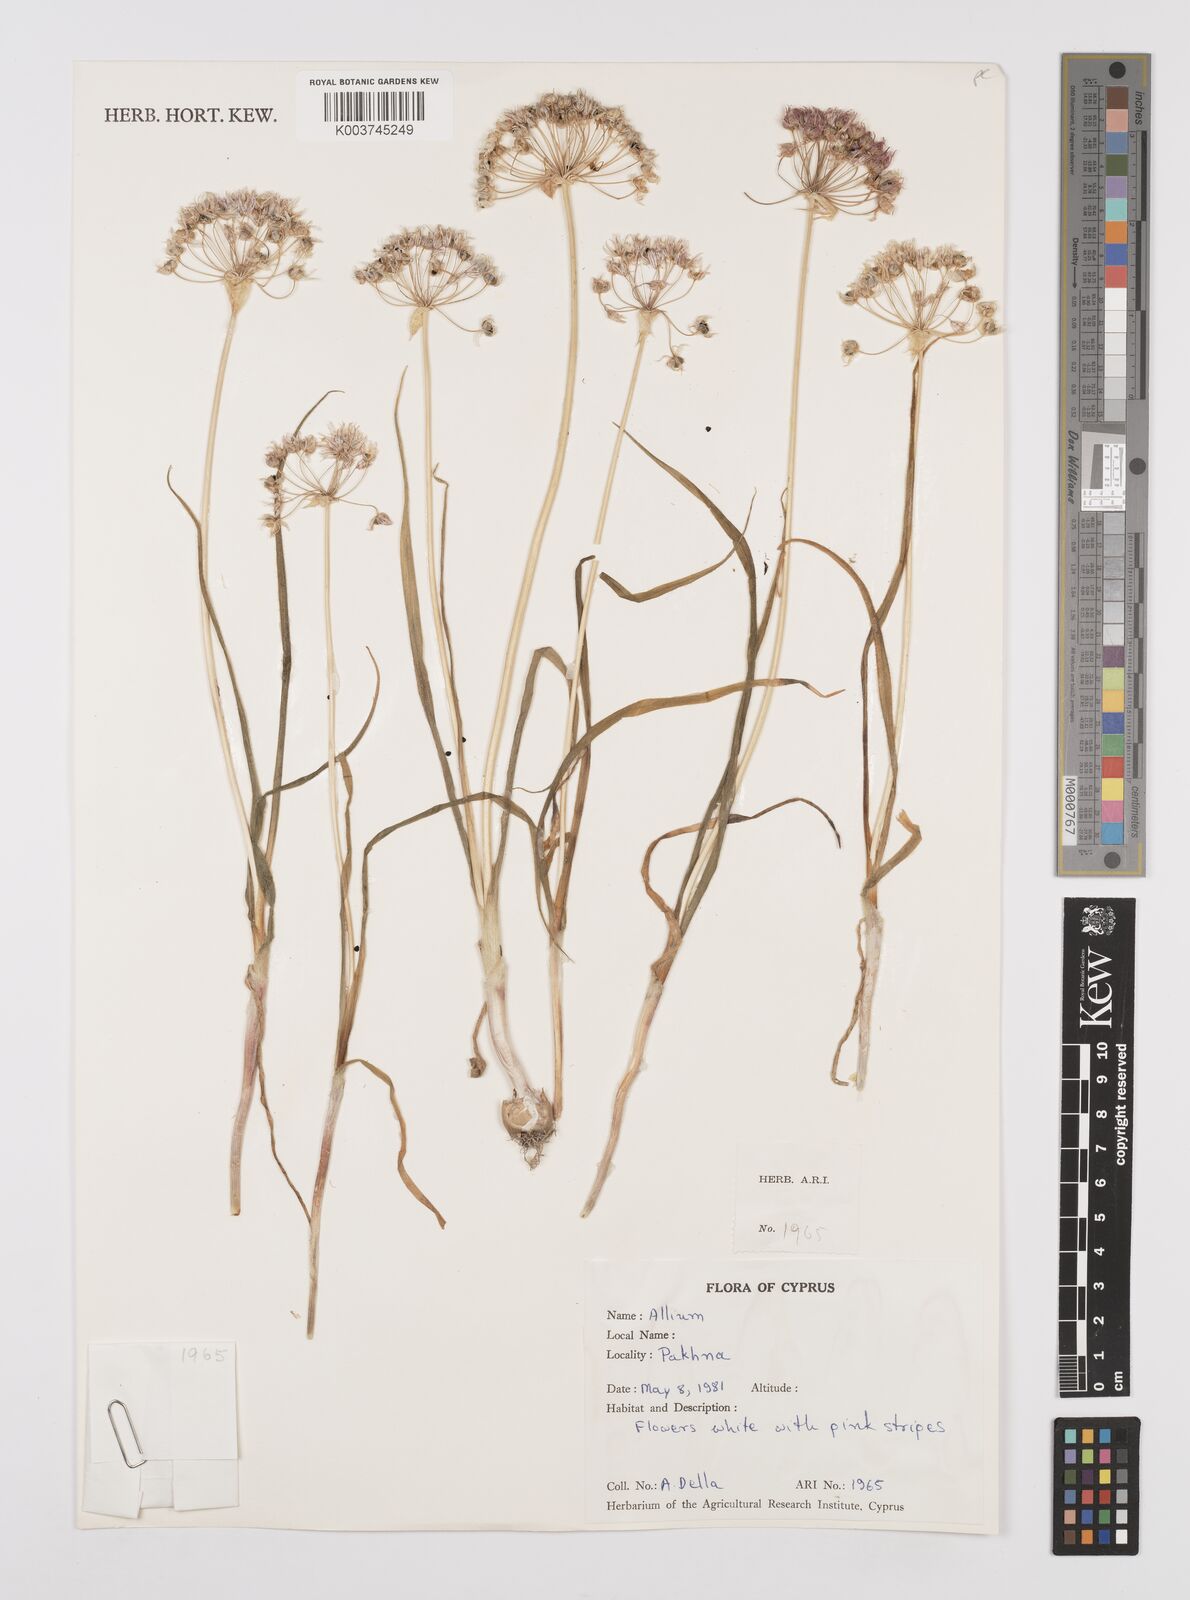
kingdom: Plantae
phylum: Tracheophyta
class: Liliopsida
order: Asparagales
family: Amaryllidaceae
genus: Allium
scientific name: Allium trifoliatum
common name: Pink garlic
